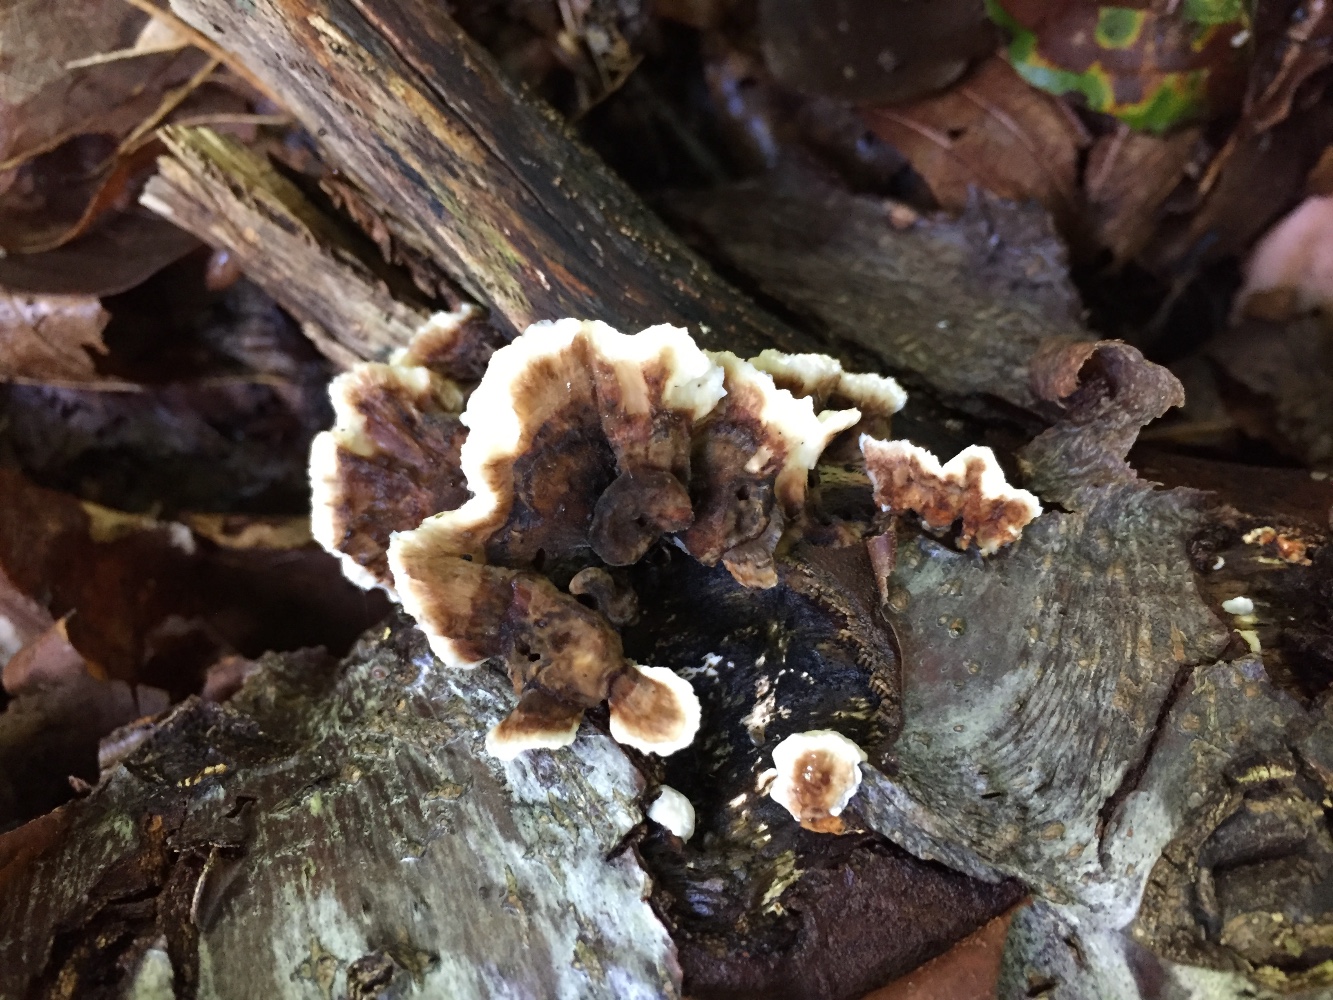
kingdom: Fungi
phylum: Basidiomycota
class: Agaricomycetes
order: Polyporales
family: Polyporaceae
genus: Trametes
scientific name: Trametes versicolor
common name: broget læderporesvamp
